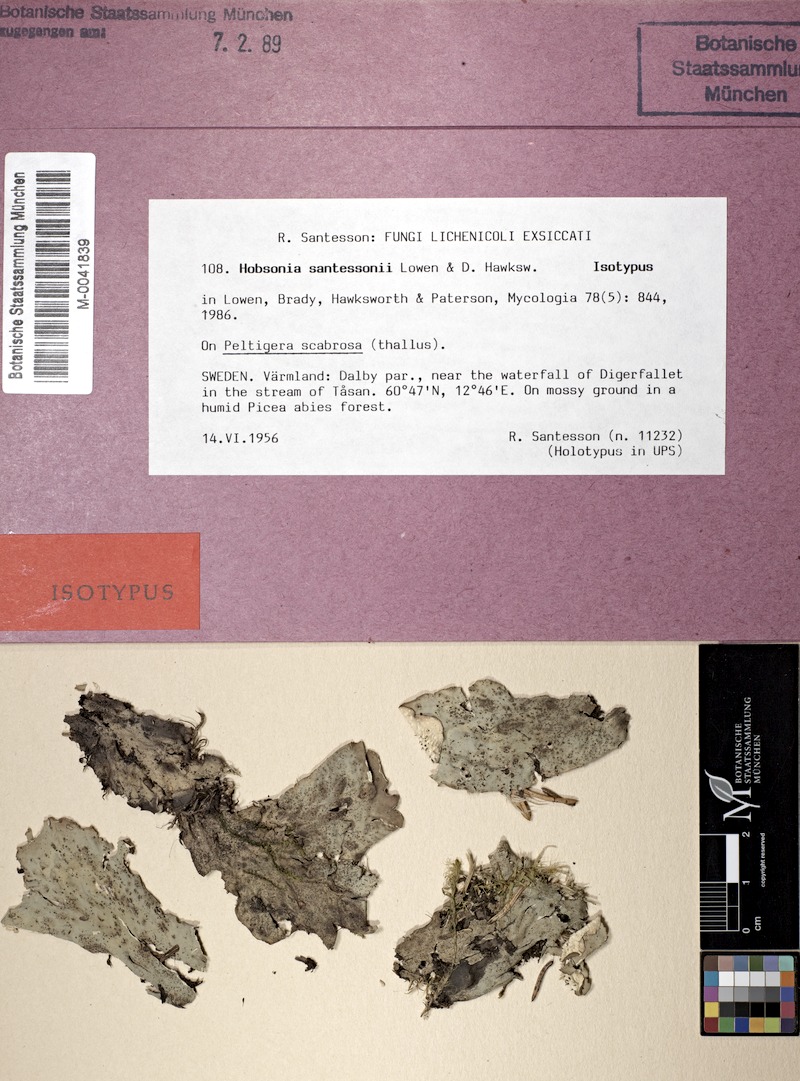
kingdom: Fungi
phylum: Ascomycota
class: Lecanoromycetes
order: Peltigerales
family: Peltigeraceae
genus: Peltigera
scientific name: Peltigera scabrosa
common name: Greater toad pelt lichen
